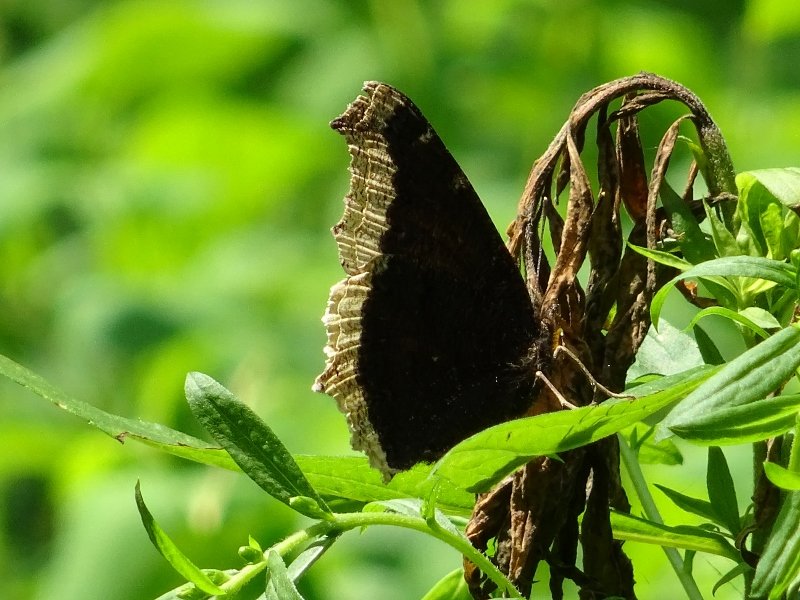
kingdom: Animalia
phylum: Arthropoda
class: Insecta
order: Lepidoptera
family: Nymphalidae
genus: Nymphalis
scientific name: Nymphalis antiopa
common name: Mourning Cloak
